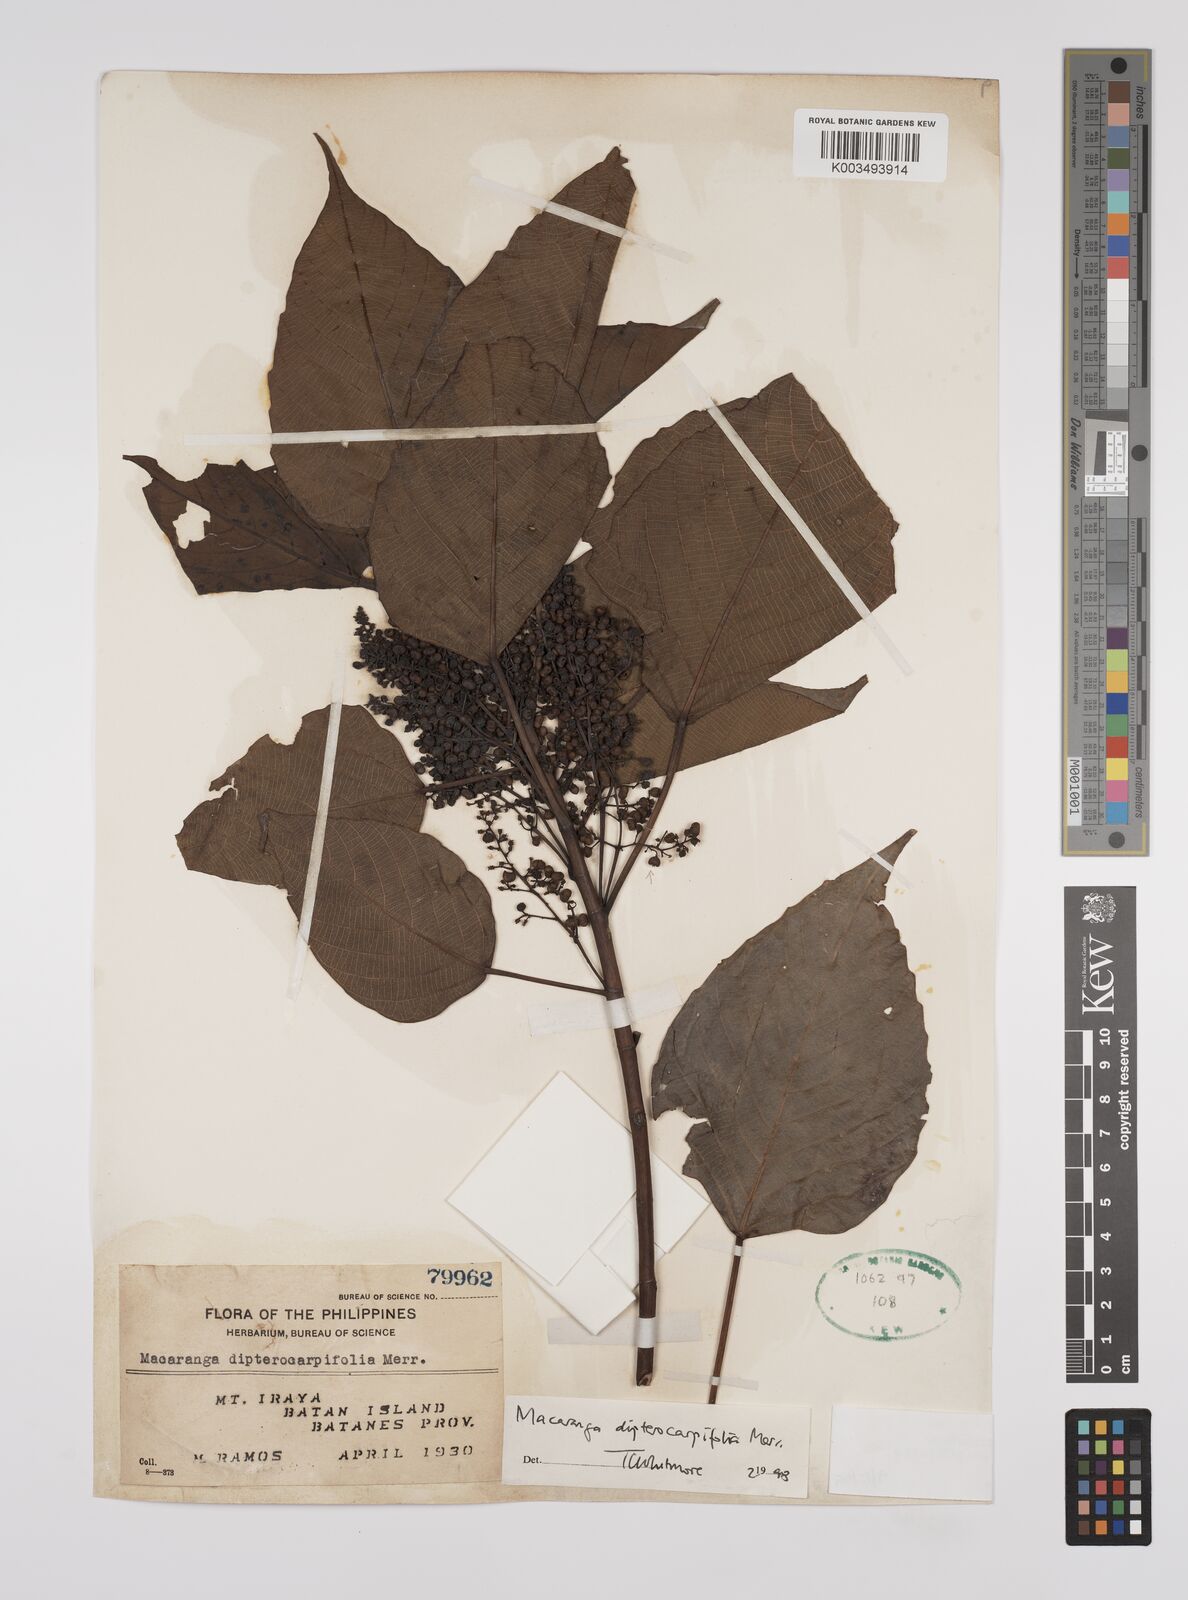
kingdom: Plantae
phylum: Tracheophyta
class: Magnoliopsida
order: Malpighiales
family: Euphorbiaceae
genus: Macaranga
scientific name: Macaranga sinensis
